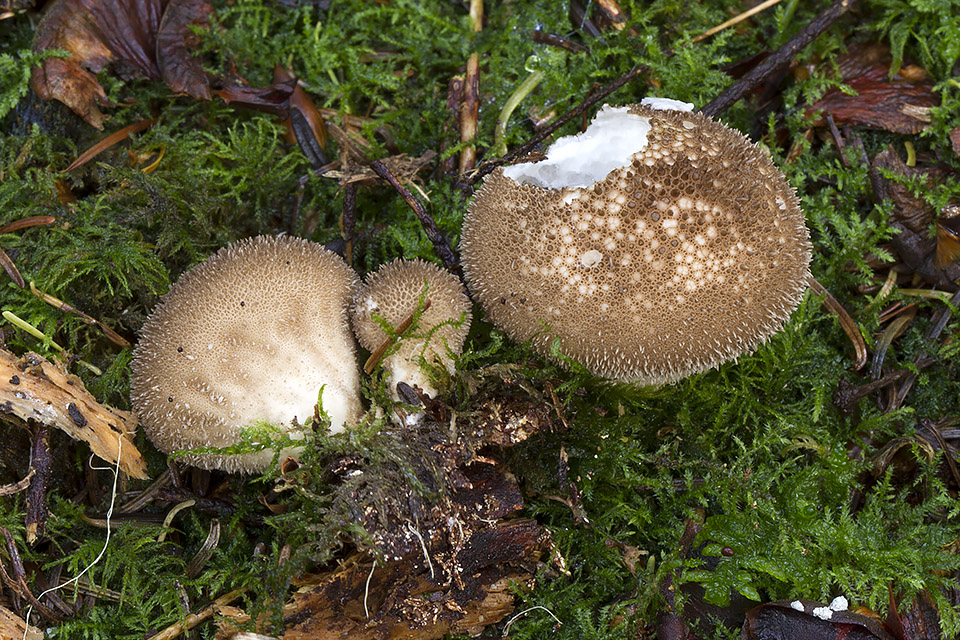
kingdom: Fungi
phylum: Basidiomycota
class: Agaricomycetes
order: Agaricales
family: Lycoperdaceae
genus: Lycoperdon
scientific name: Lycoperdon nigrescens
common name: sortagtig støvbold
